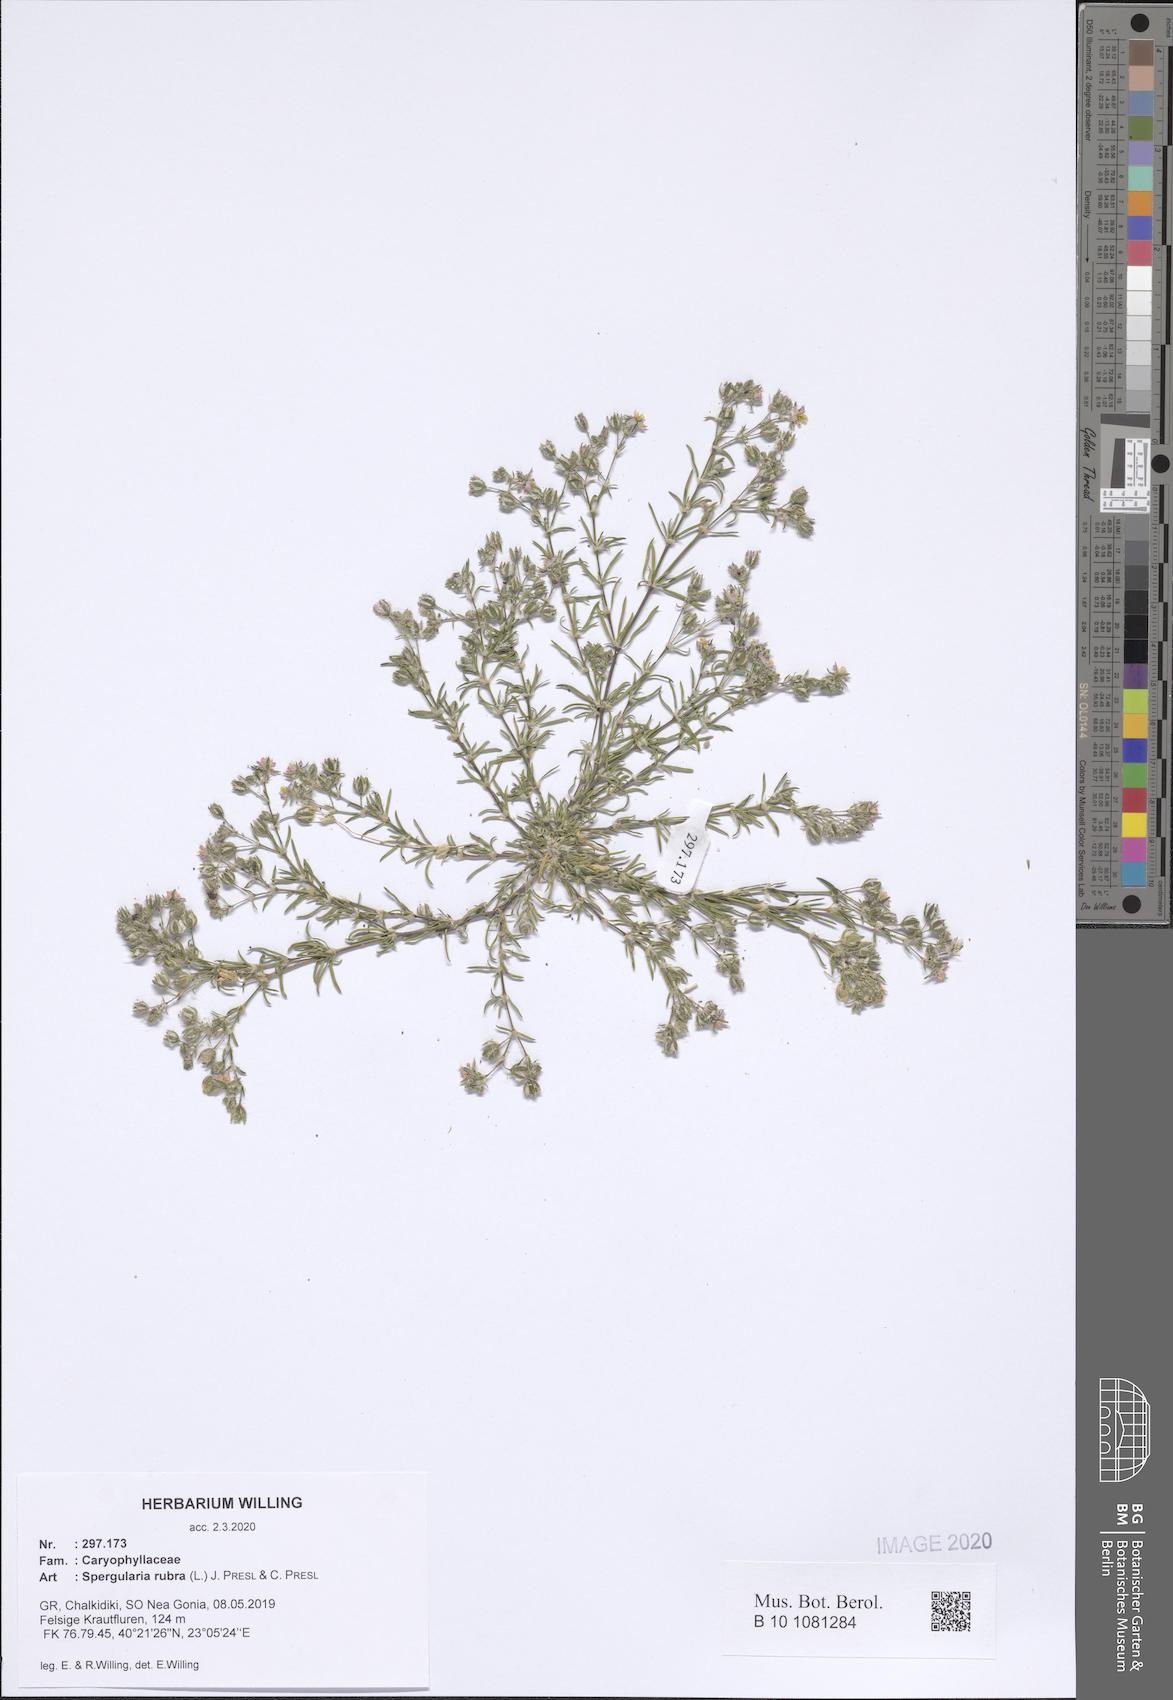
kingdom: Plantae
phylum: Tracheophyta
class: Magnoliopsida
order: Caryophyllales
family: Caryophyllaceae
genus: Spergularia
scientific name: Spergularia rubra
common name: Red sand-spurrey
